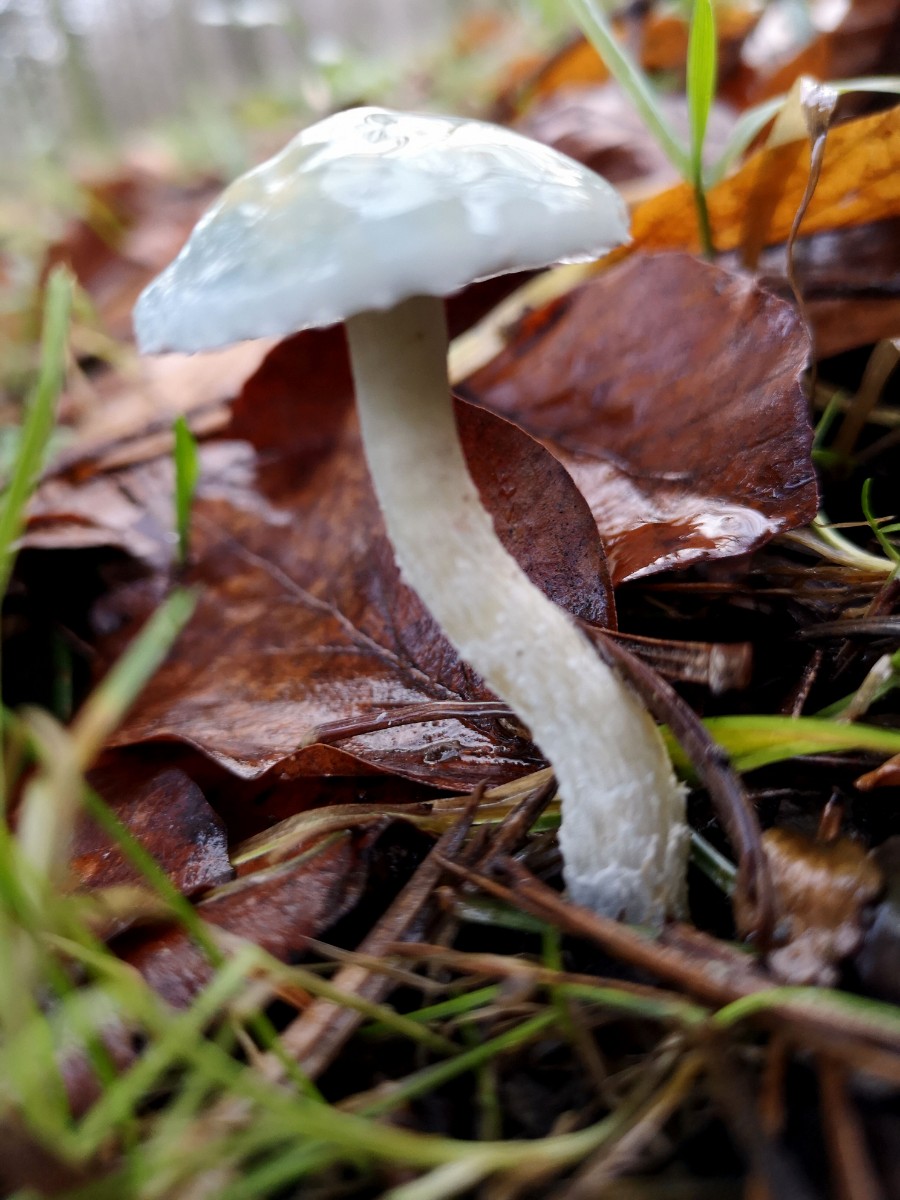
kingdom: Fungi
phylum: Basidiomycota
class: Agaricomycetes
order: Agaricales
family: Strophariaceae
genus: Stropharia
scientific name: Stropharia
